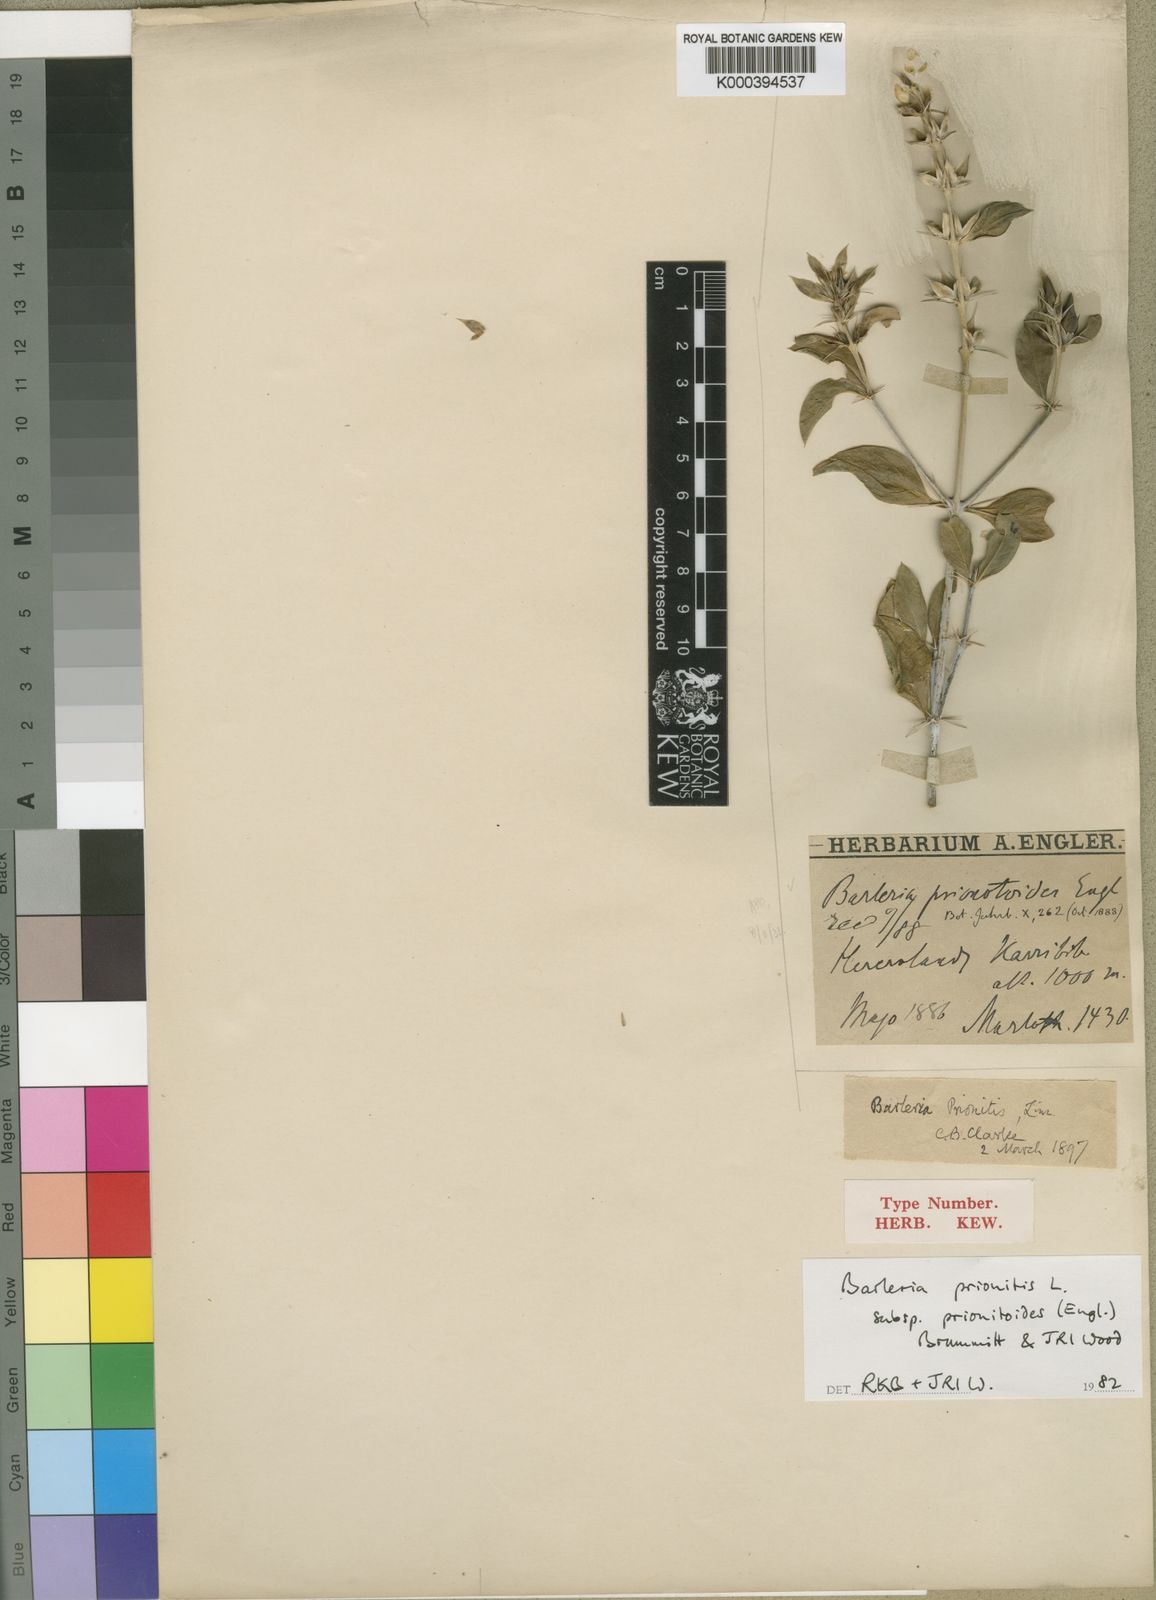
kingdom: Plantae
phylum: Tracheophyta
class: Magnoliopsida
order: Lamiales
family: Acanthaceae
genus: Barleria
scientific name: Barleria prionitoides
